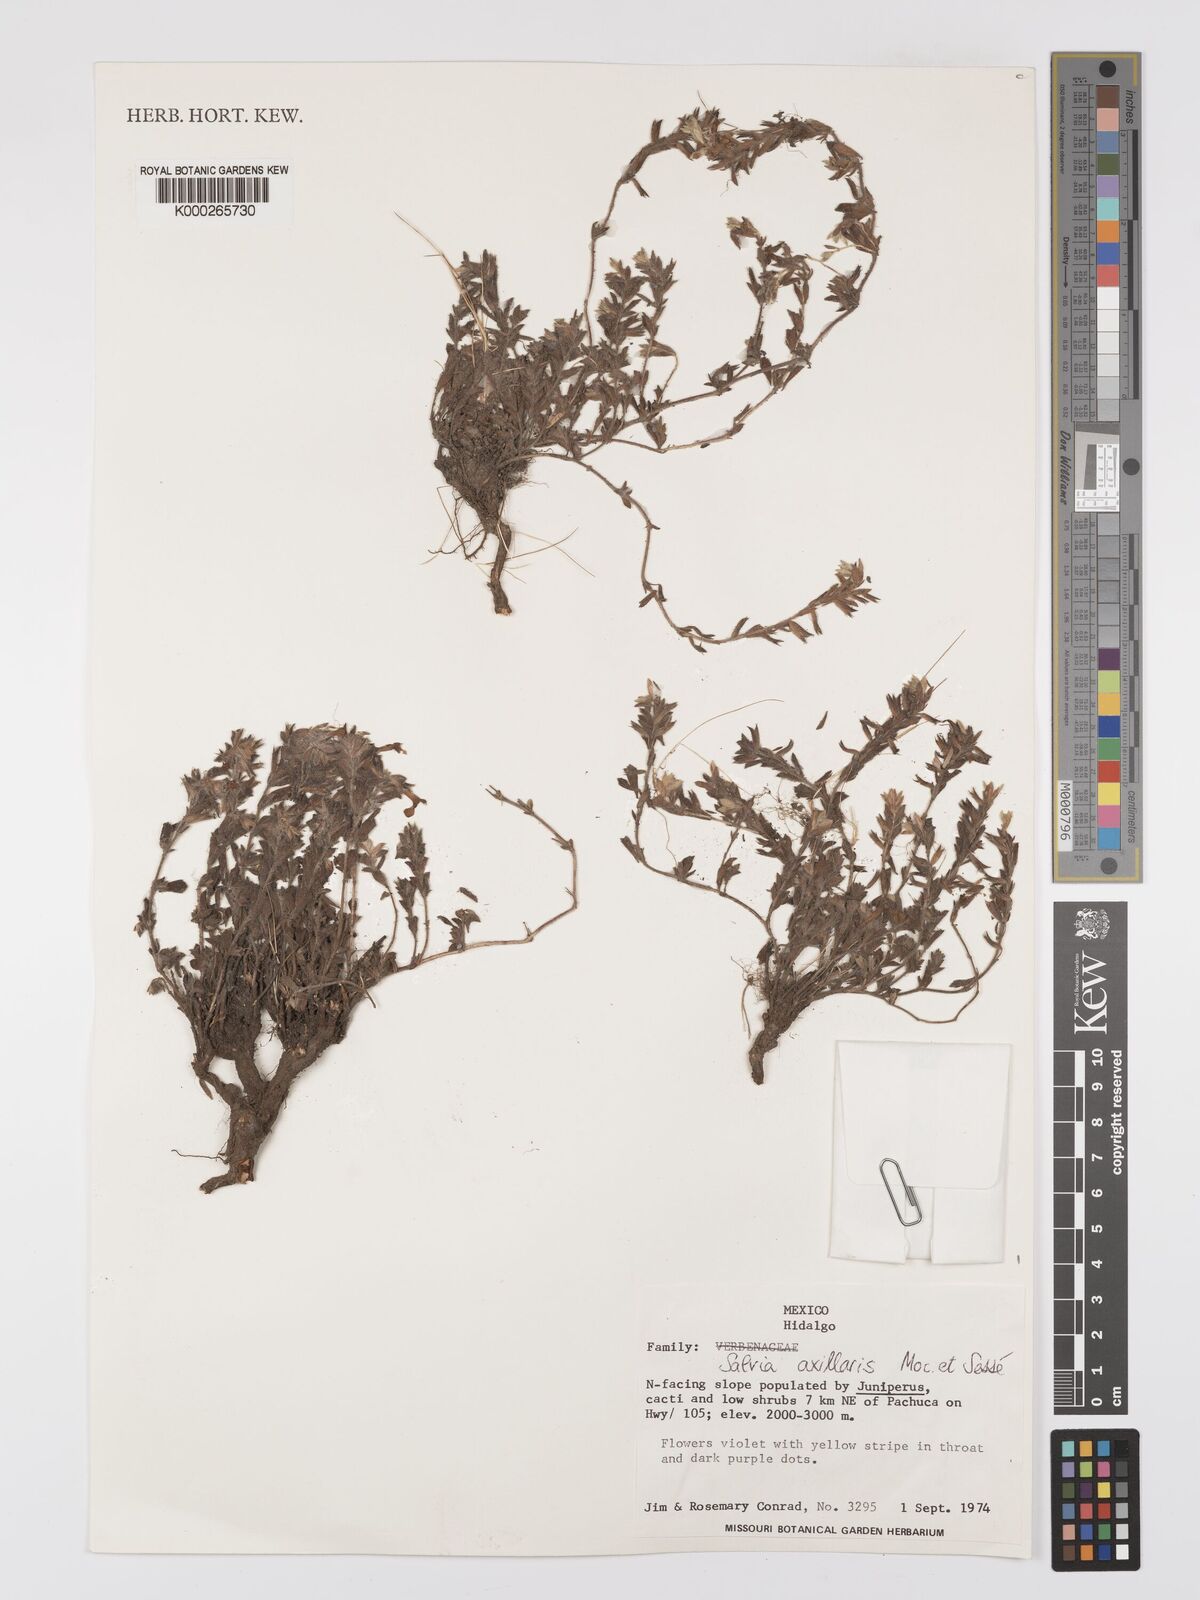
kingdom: Plantae
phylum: Tracheophyta
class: Magnoliopsida
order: Lamiales
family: Lamiaceae
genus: Salvia
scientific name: Salvia
